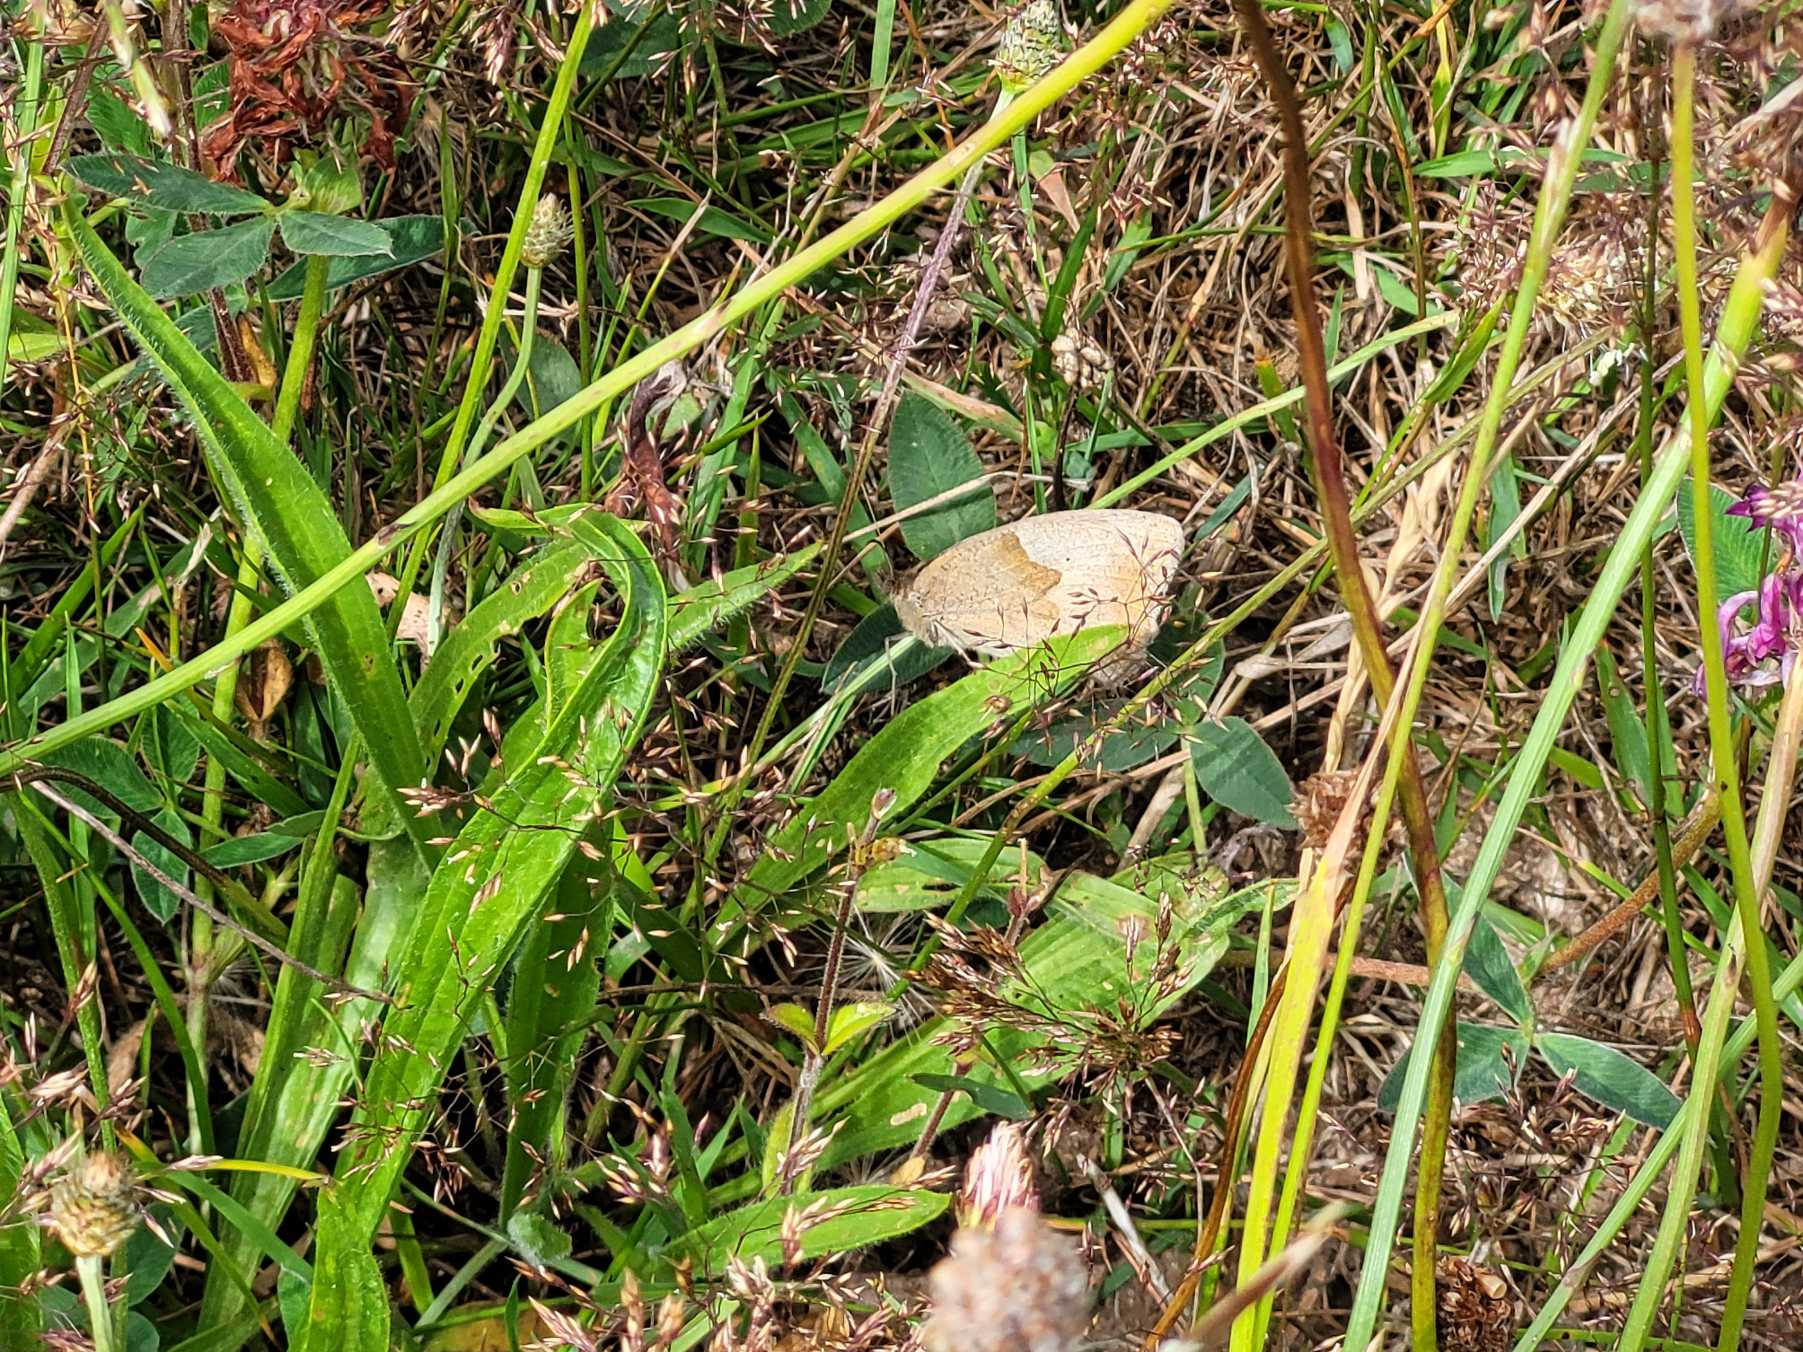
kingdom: Animalia
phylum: Arthropoda
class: Insecta
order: Lepidoptera
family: Nymphalidae
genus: Maniola
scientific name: Maniola jurtina
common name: Græsrandøje
